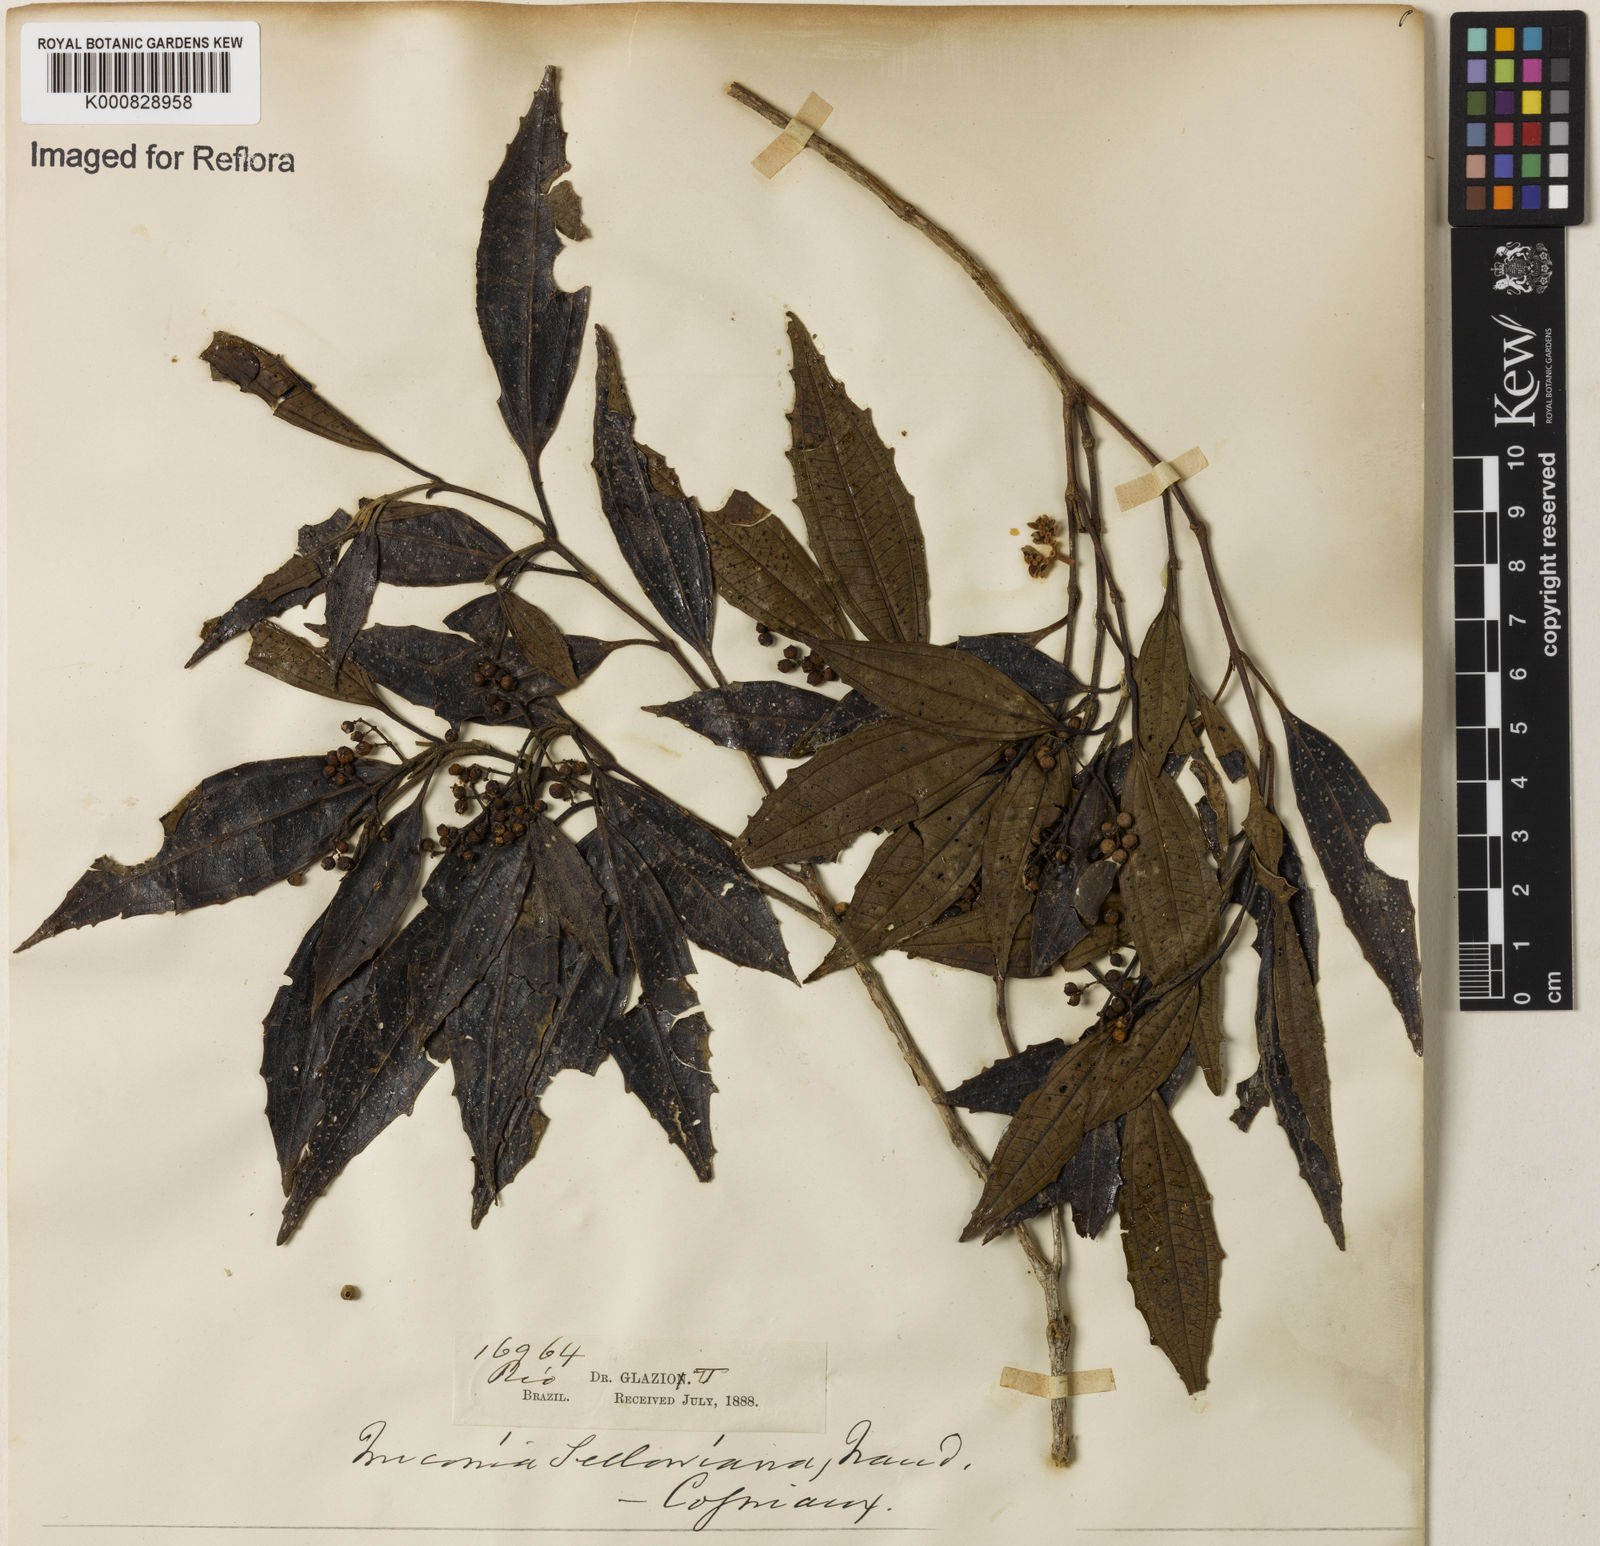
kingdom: Plantae
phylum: Tracheophyta
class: Magnoliopsida
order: Myrtales
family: Melastomataceae
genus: Miconia
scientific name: Miconia sellowiana
